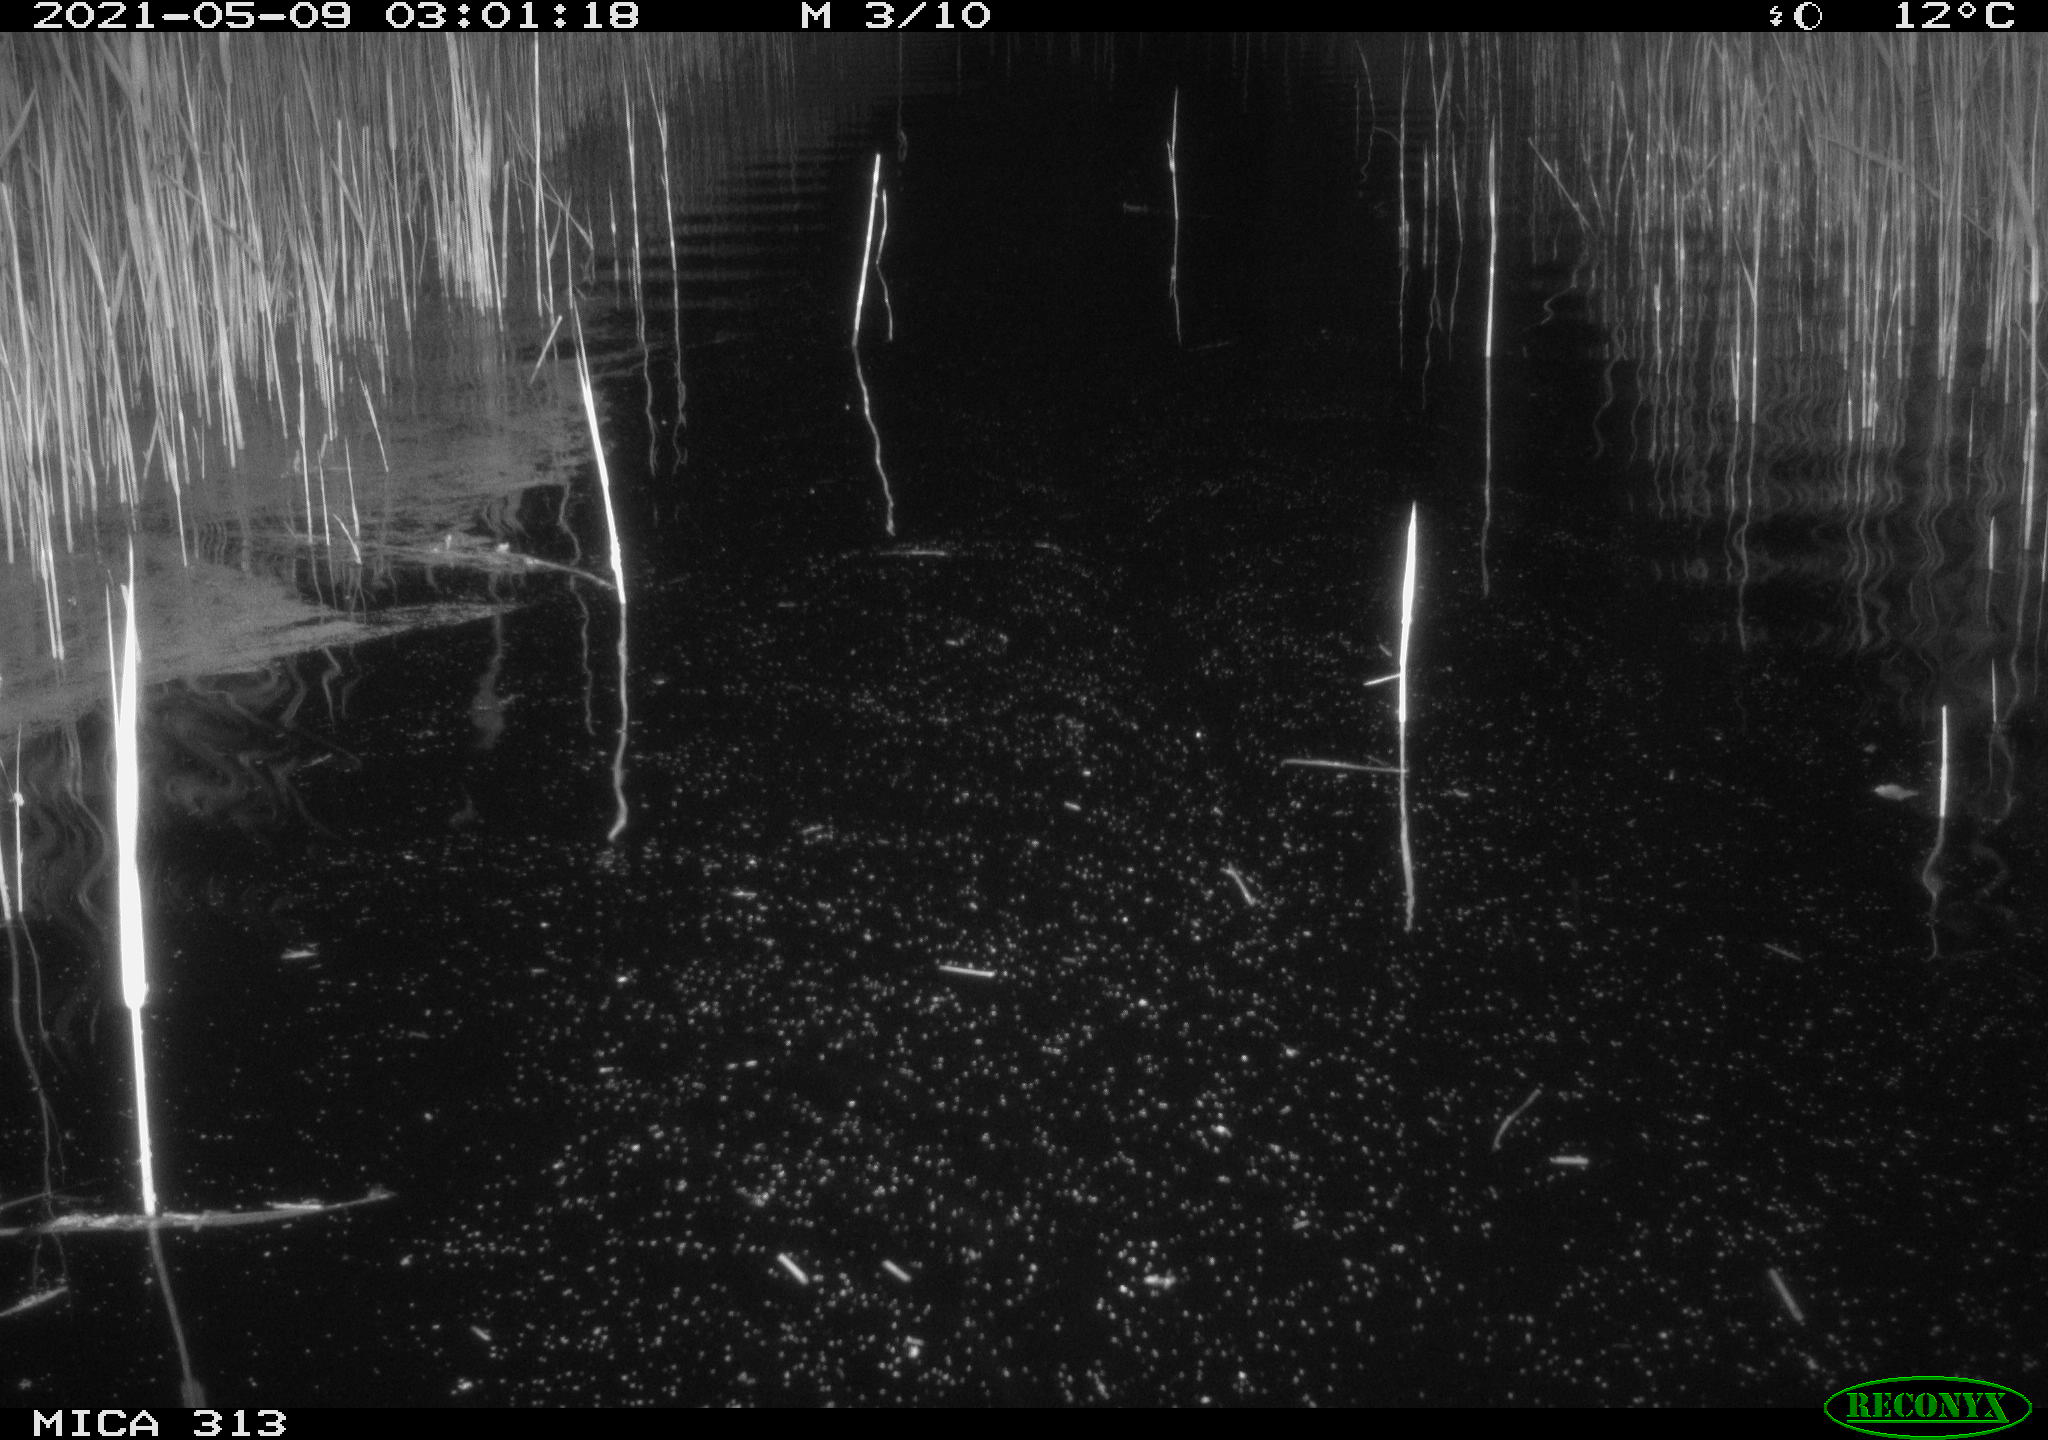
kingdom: Animalia
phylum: Chordata
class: Aves
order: Anseriformes
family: Anatidae
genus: Anas
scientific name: Anas platyrhynchos
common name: Mallard
